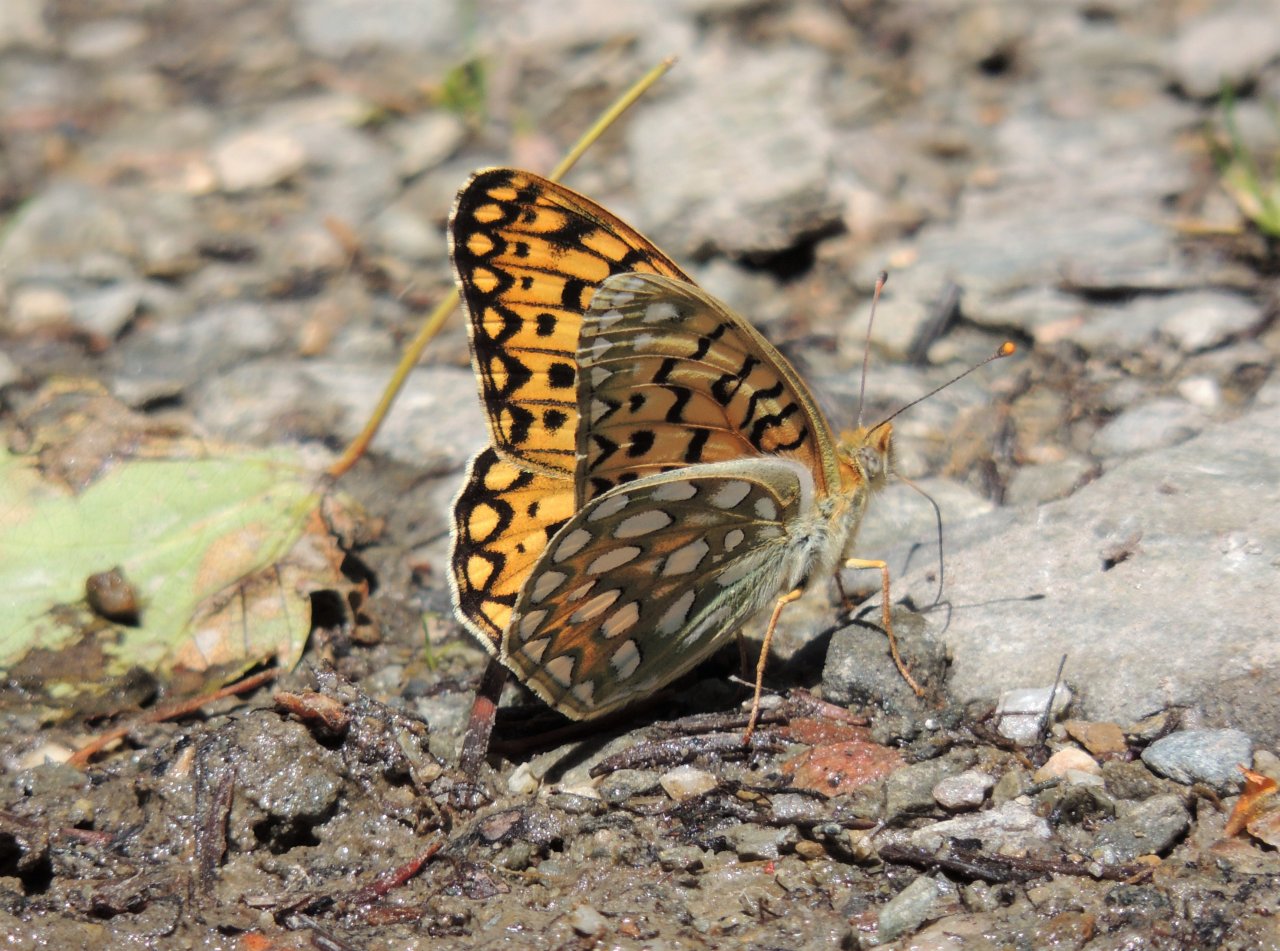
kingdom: Animalia
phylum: Arthropoda
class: Insecta
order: Lepidoptera
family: Nymphalidae
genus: Speyeria
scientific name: Speyeria callippe
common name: Callippe Fritillary
